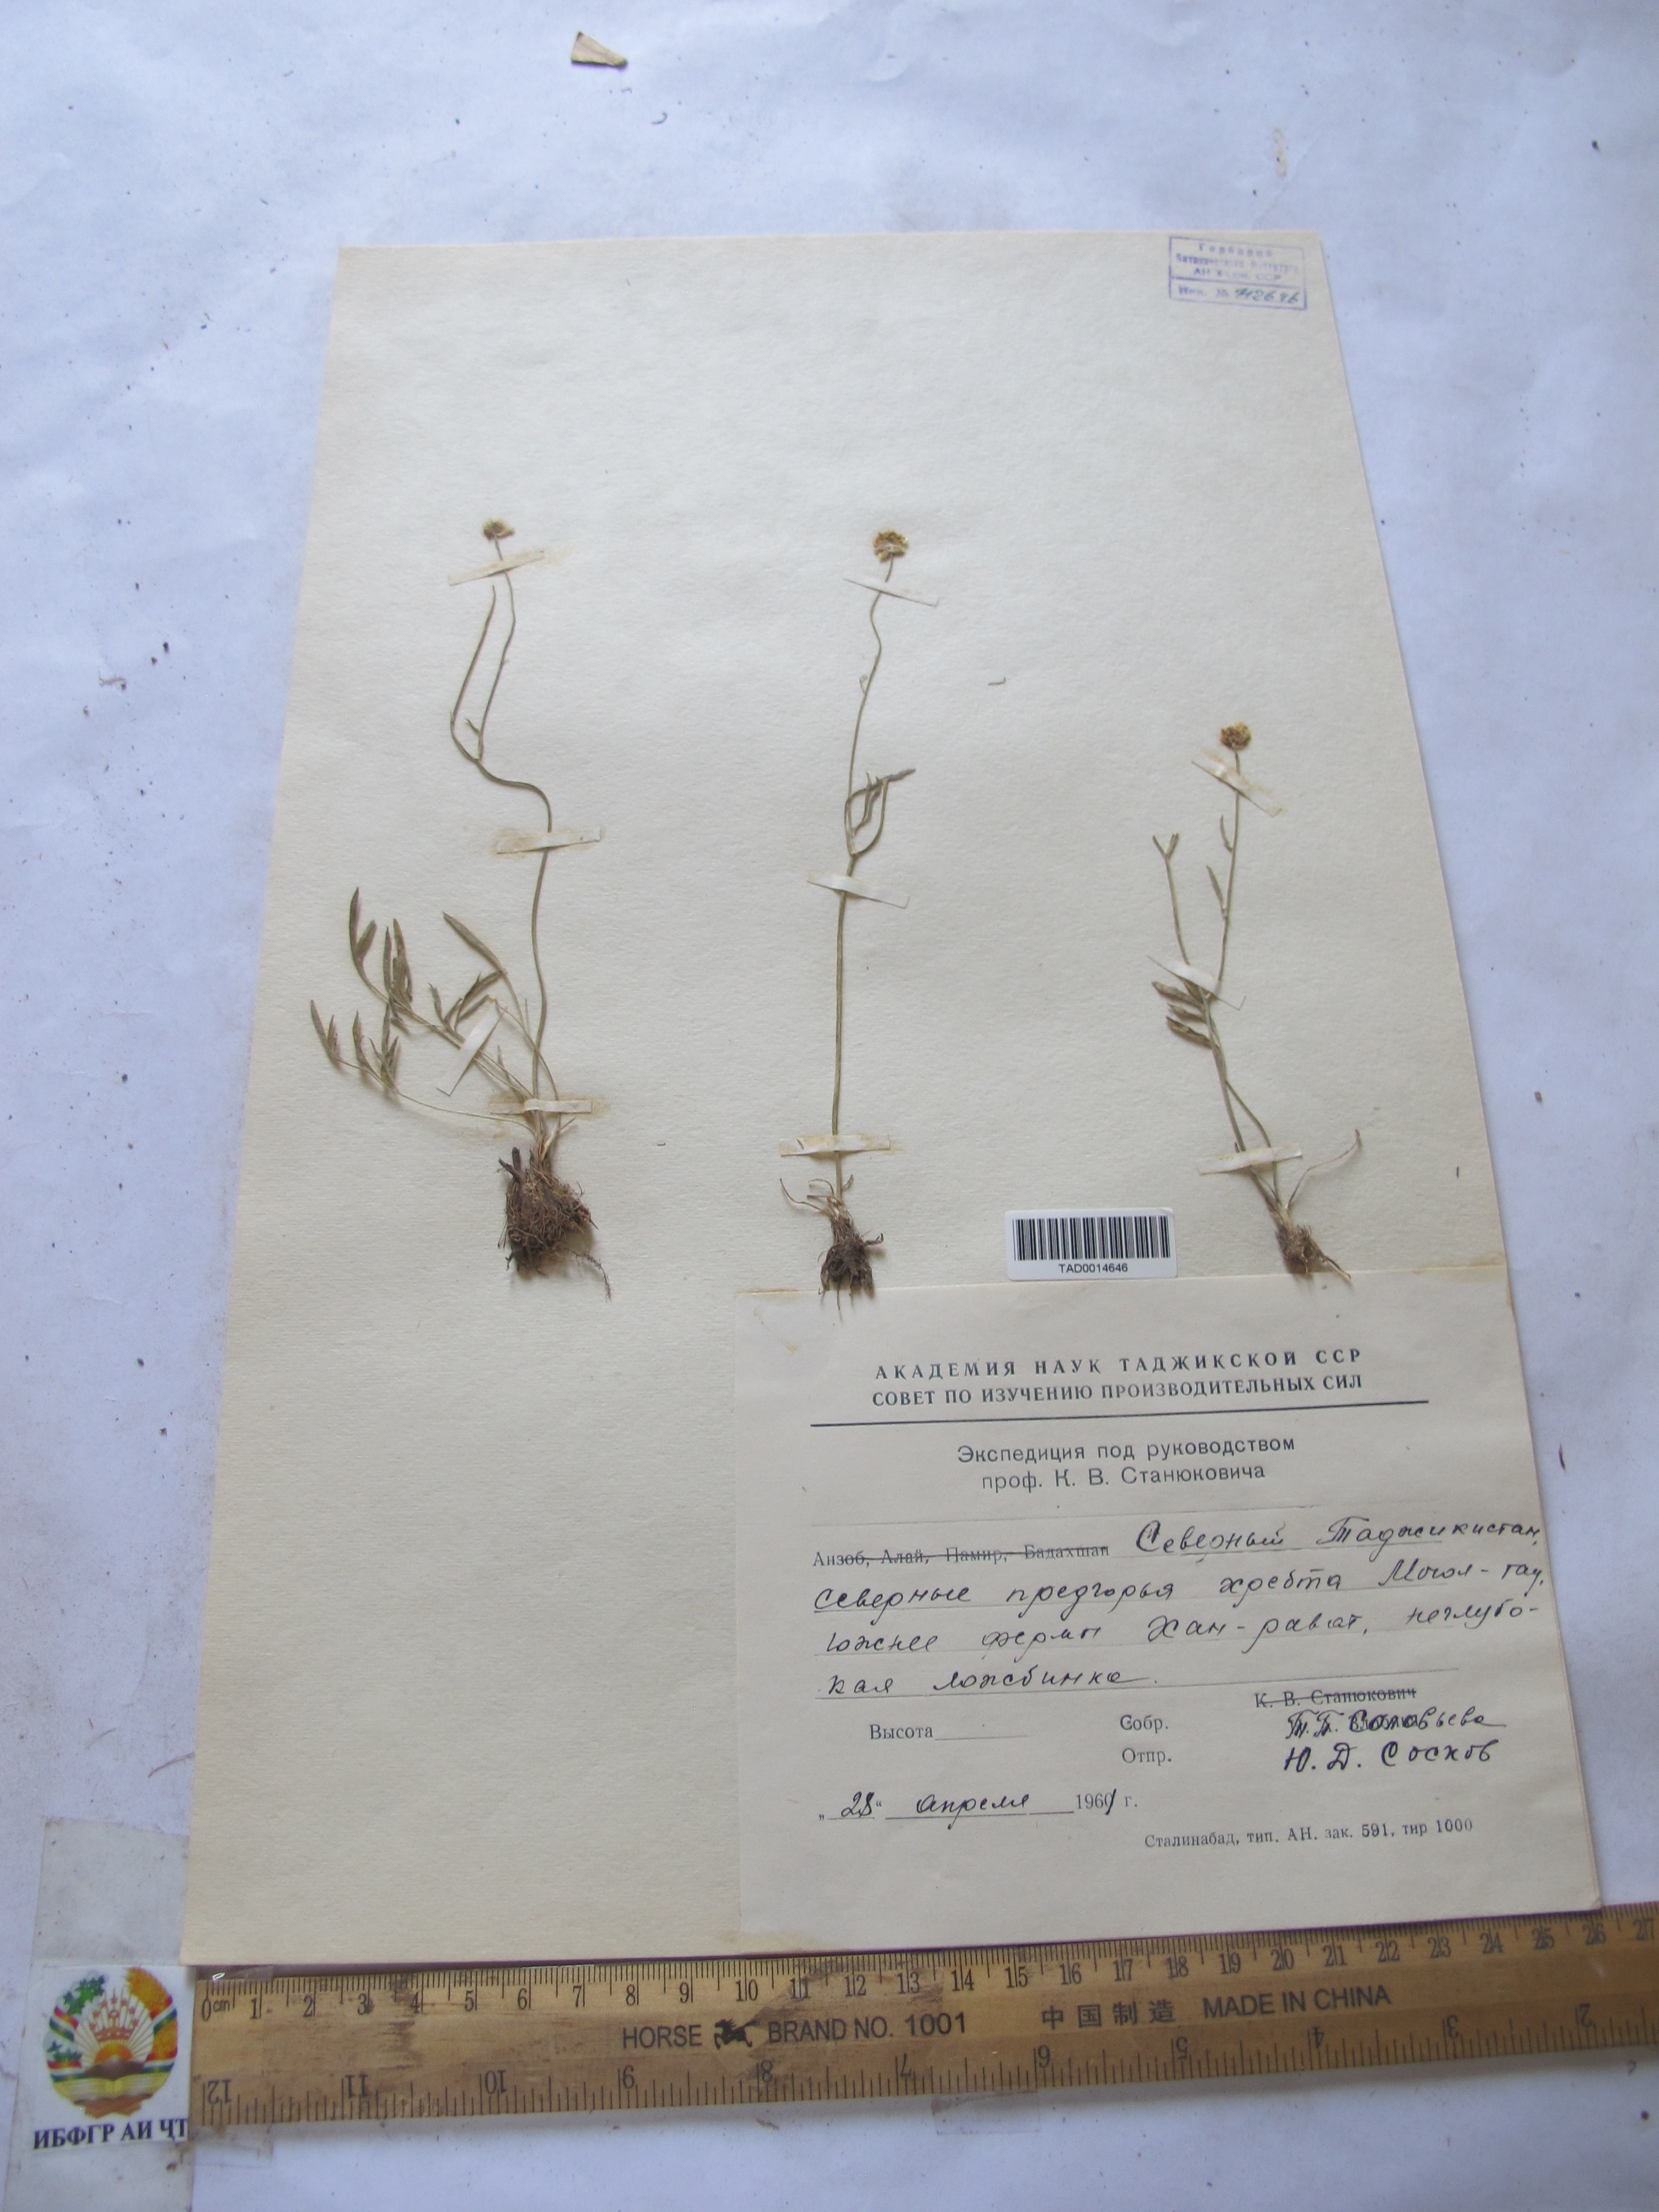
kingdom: Plantae
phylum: Tracheophyta
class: Magnoliopsida
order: Ranunculales
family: Ranunculaceae
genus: Ranunculus
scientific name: Ranunculus
